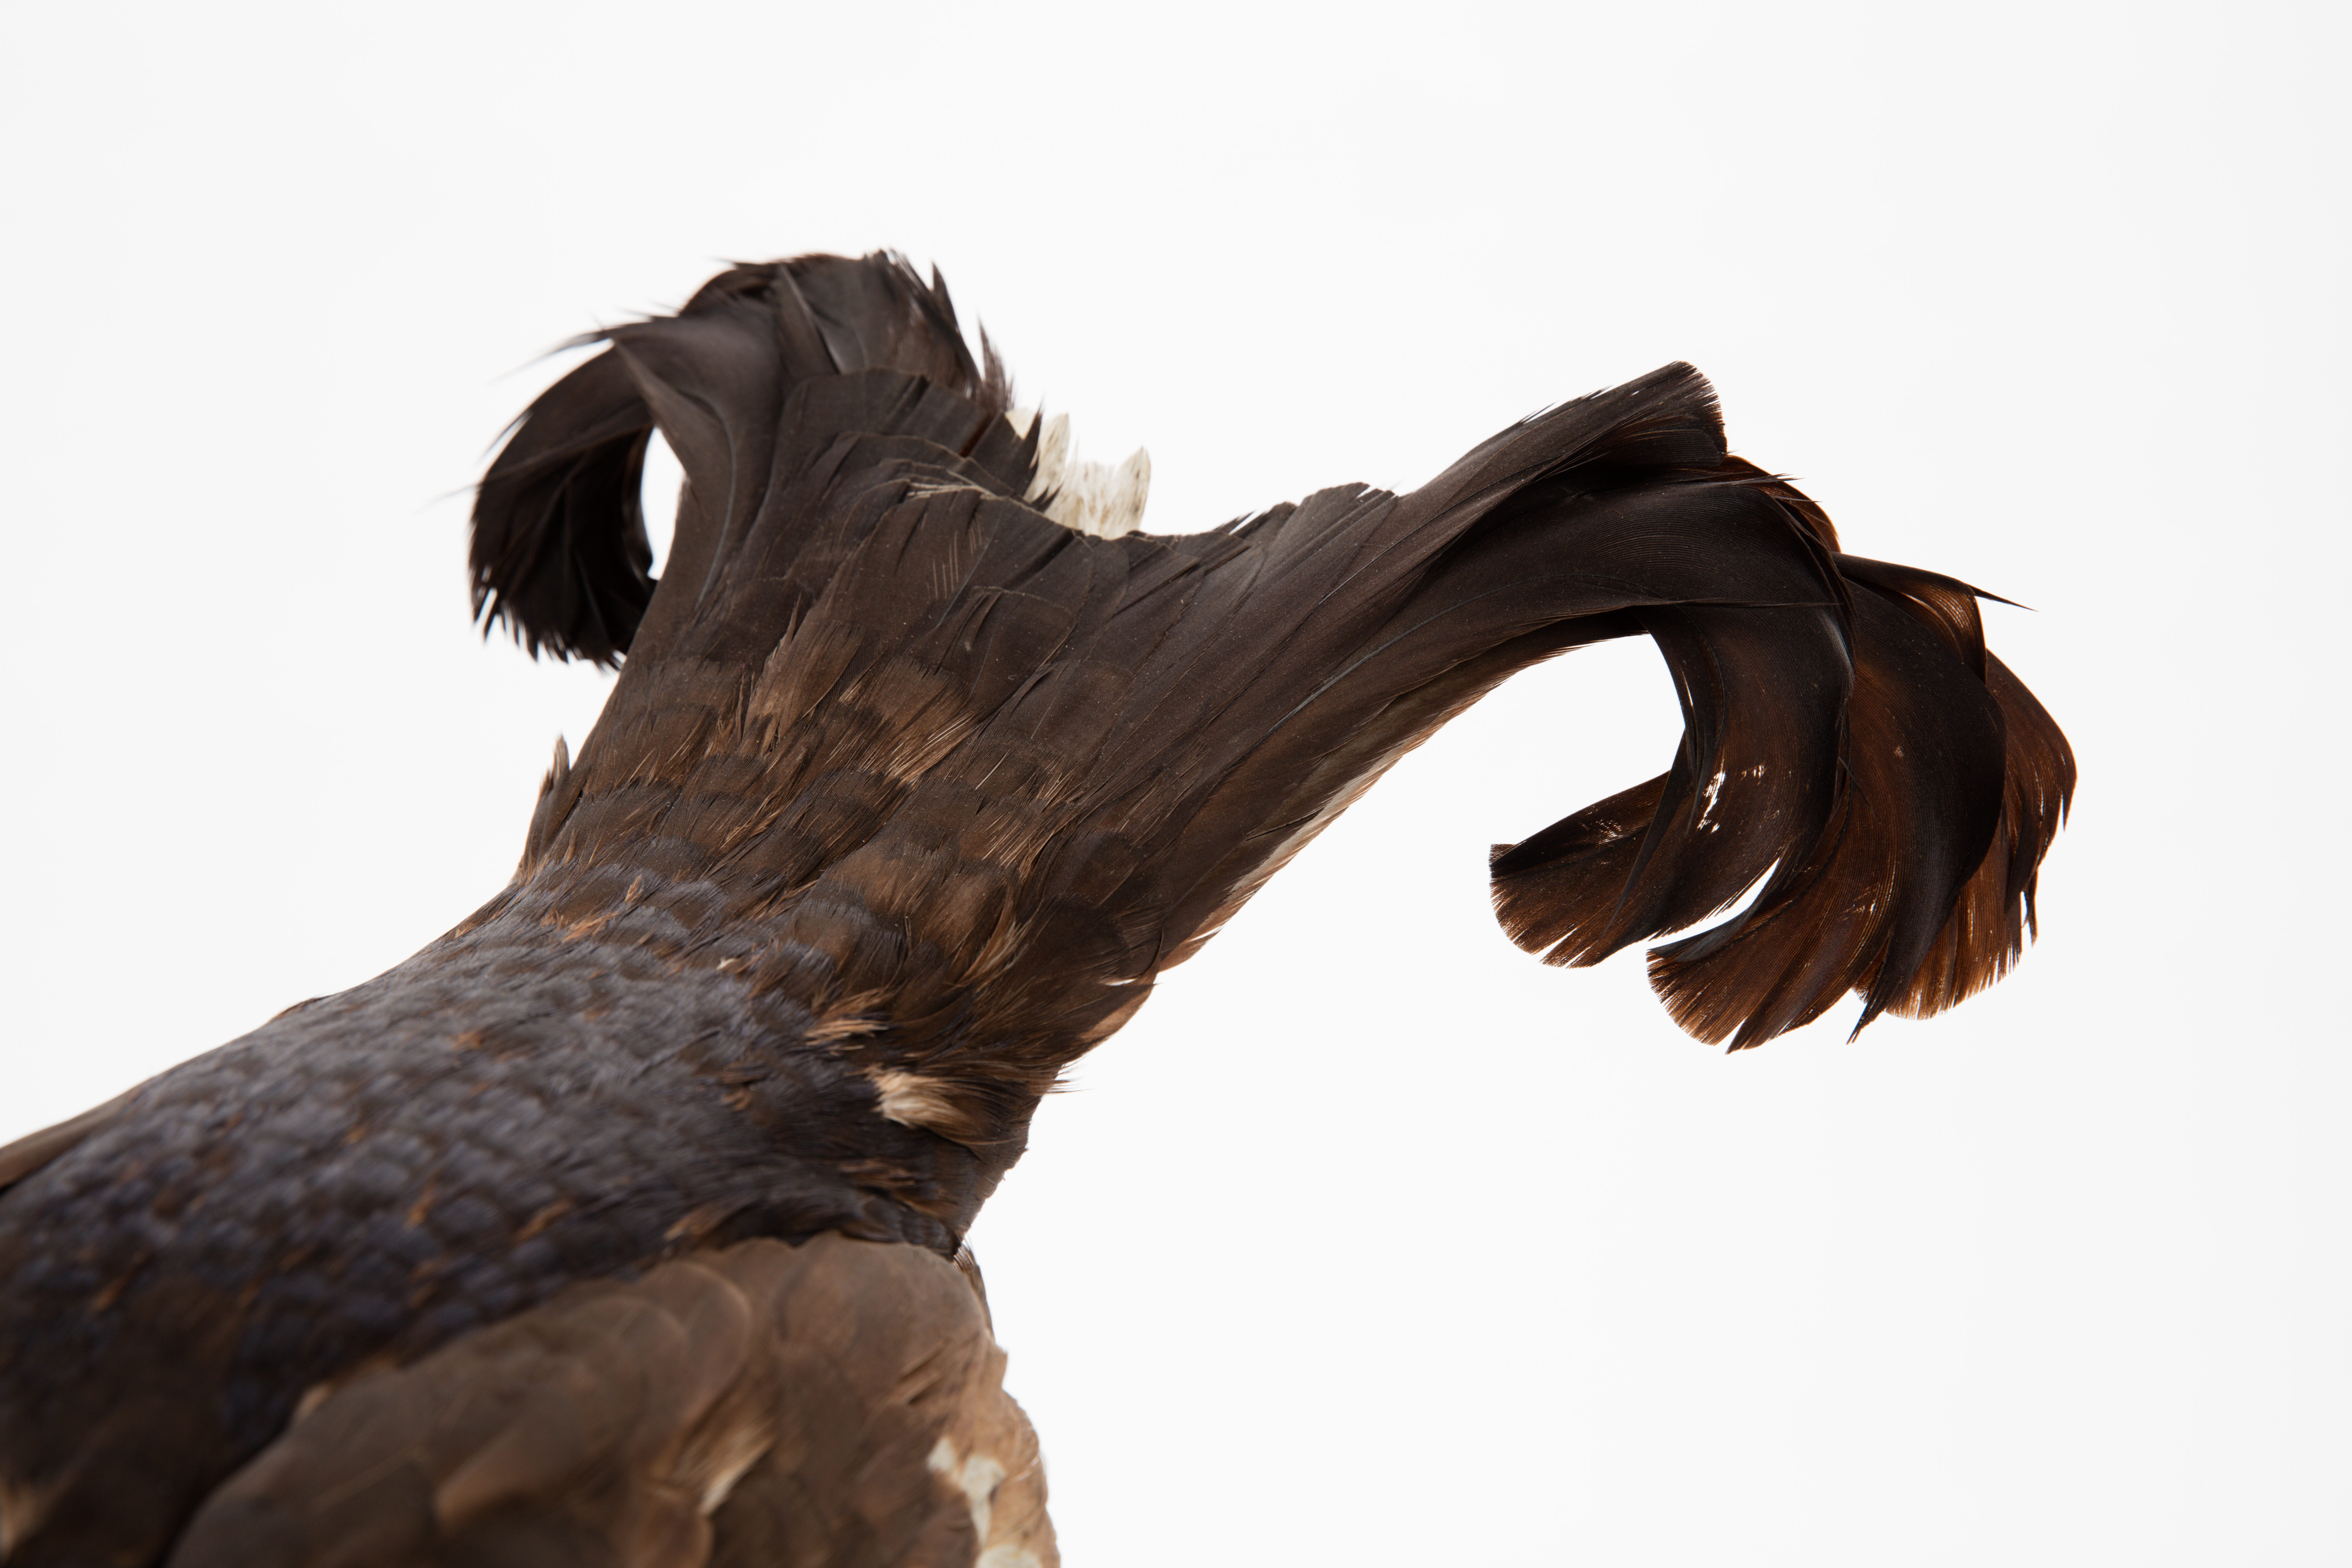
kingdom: Animalia
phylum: Chordata
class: Aves
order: Galliformes
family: Phasianidae
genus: Lyrurus
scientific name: Lyrurus tetrix
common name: Black grouse
